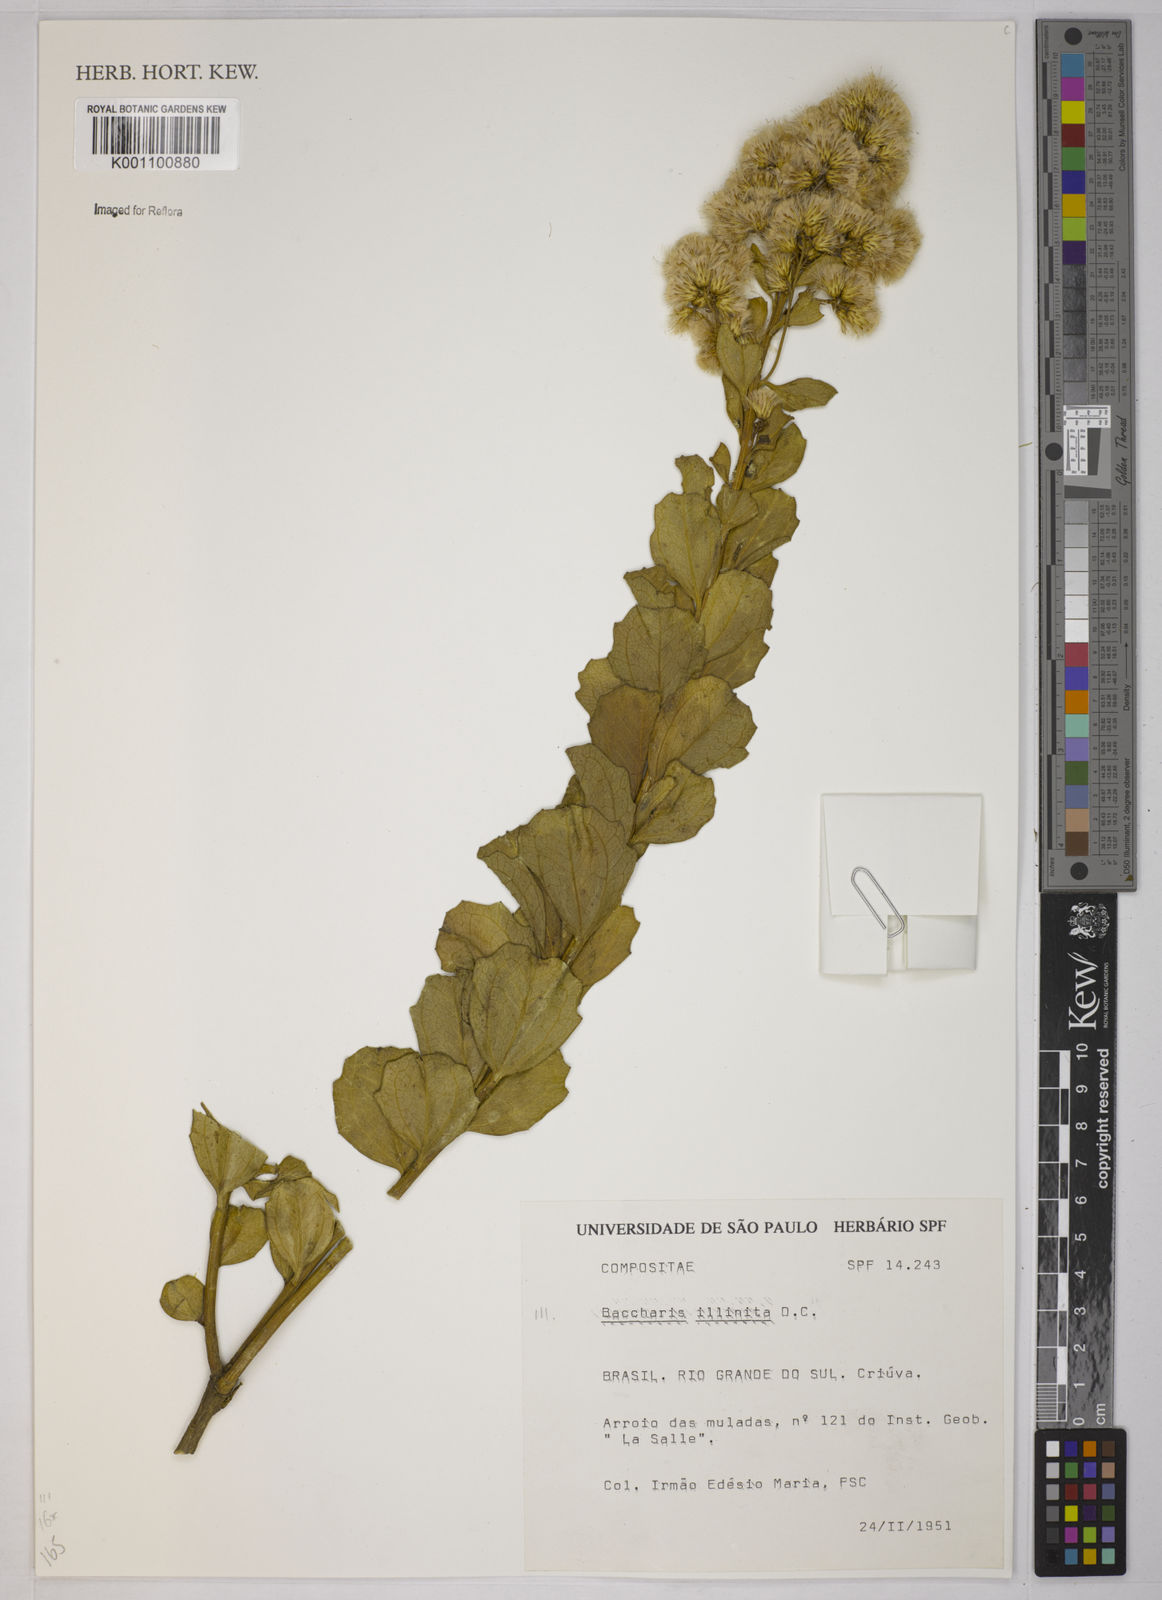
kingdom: Plantae
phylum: Tracheophyta
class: Magnoliopsida
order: Asterales
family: Asteraceae
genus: Baccharis
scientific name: Baccharis tridentata
